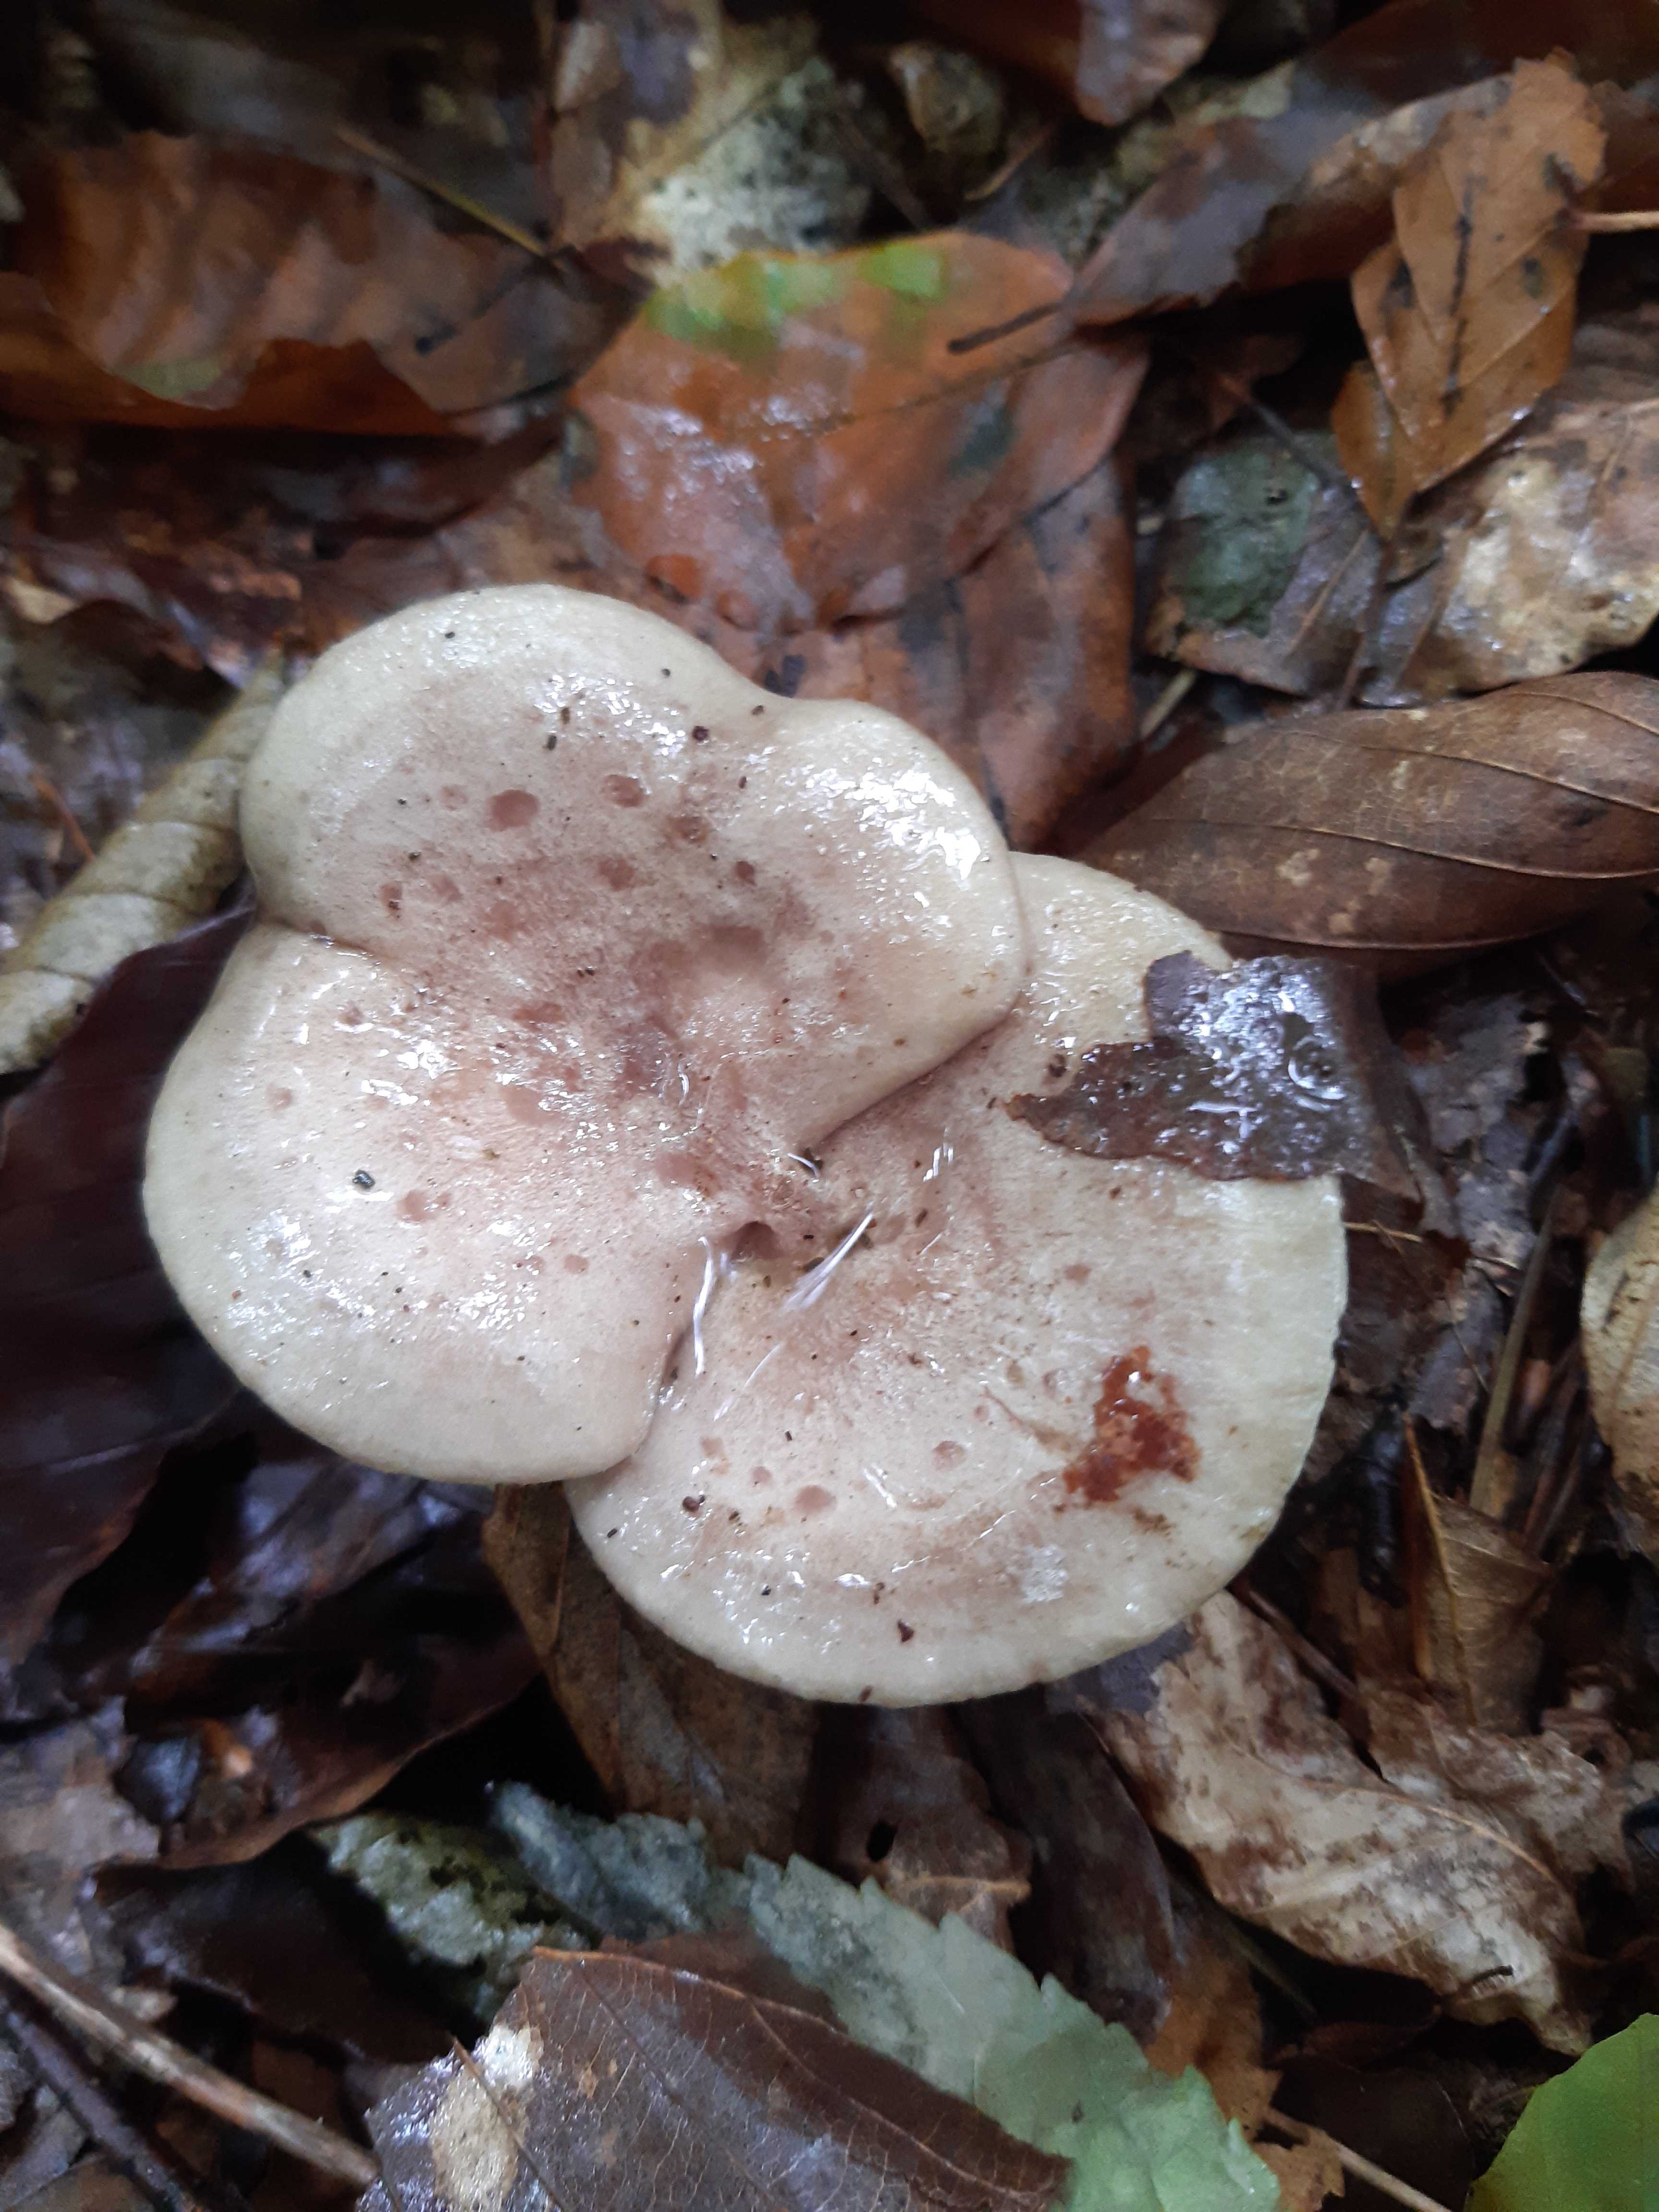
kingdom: Fungi
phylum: Basidiomycota
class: Agaricomycetes
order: Russulales
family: Russulaceae
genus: Lactarius
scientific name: Lactarius blennius
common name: dråbeplettet mælkehat
